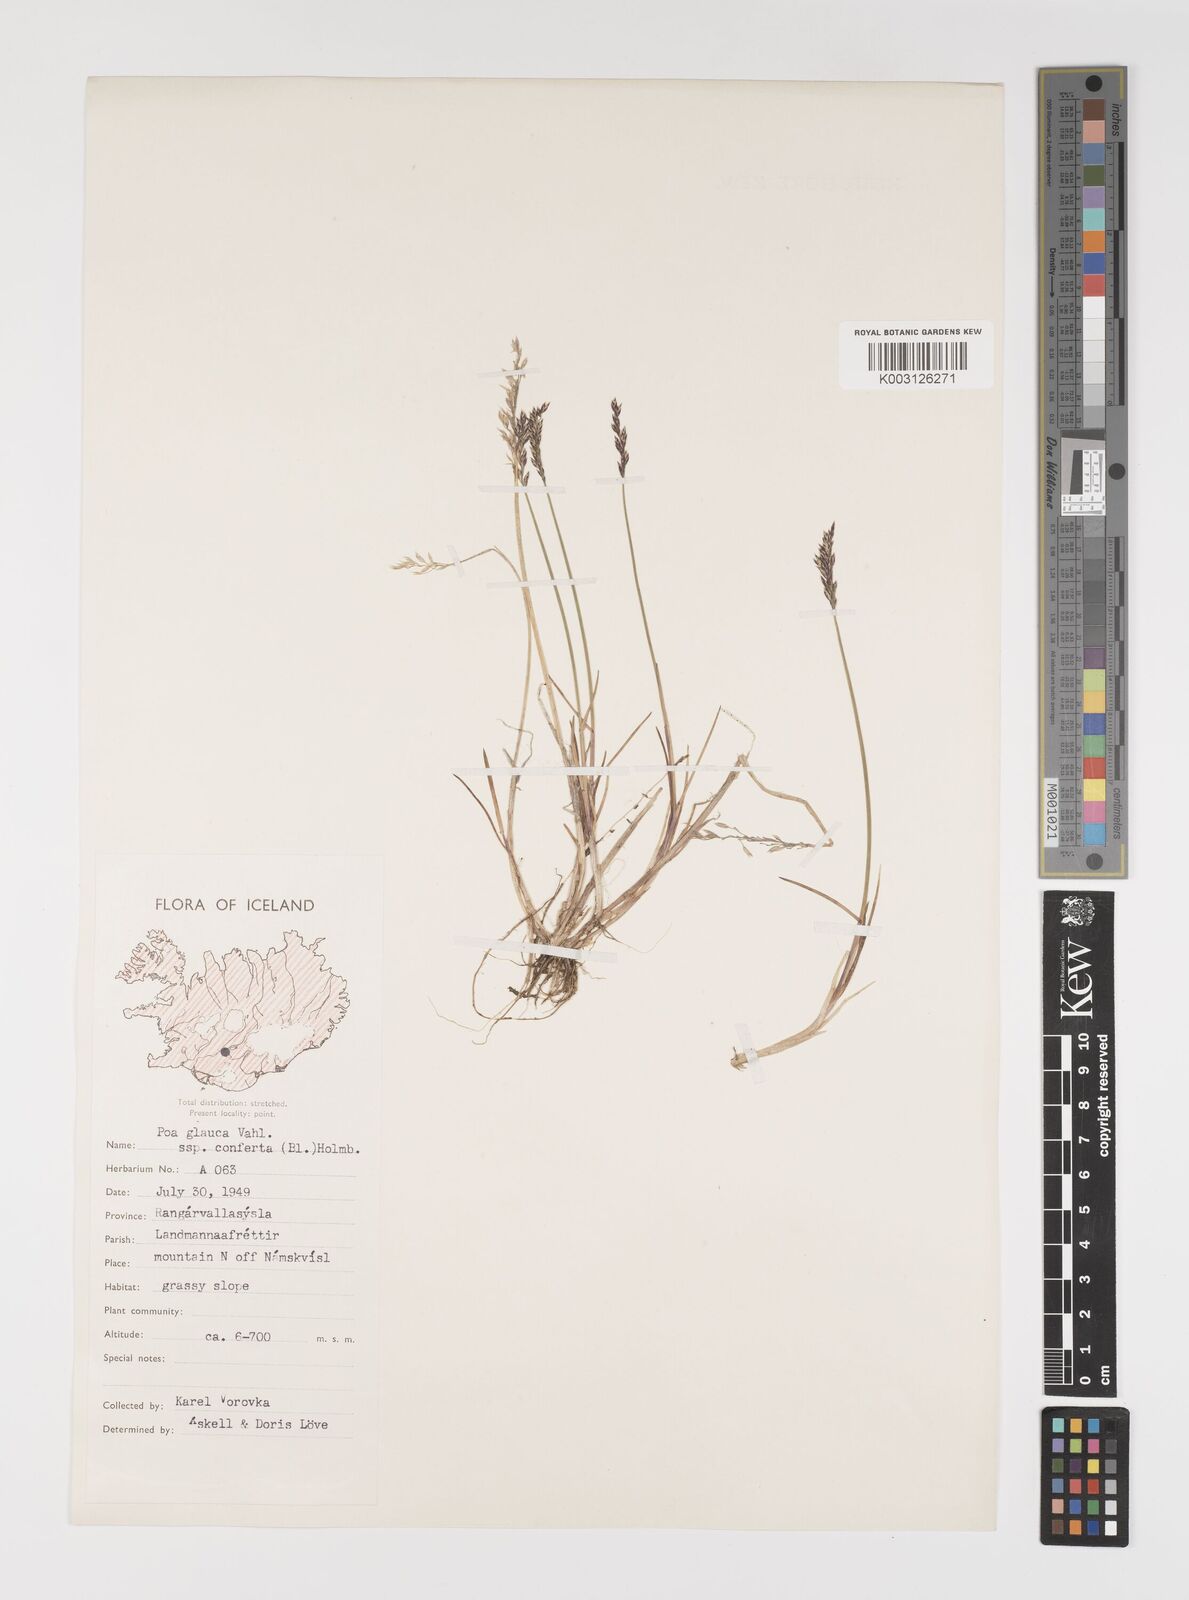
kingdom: Plantae
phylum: Tracheophyta
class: Liliopsida
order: Poales
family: Poaceae
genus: Poa
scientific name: Poa glauca
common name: Glaucous bluegrass
